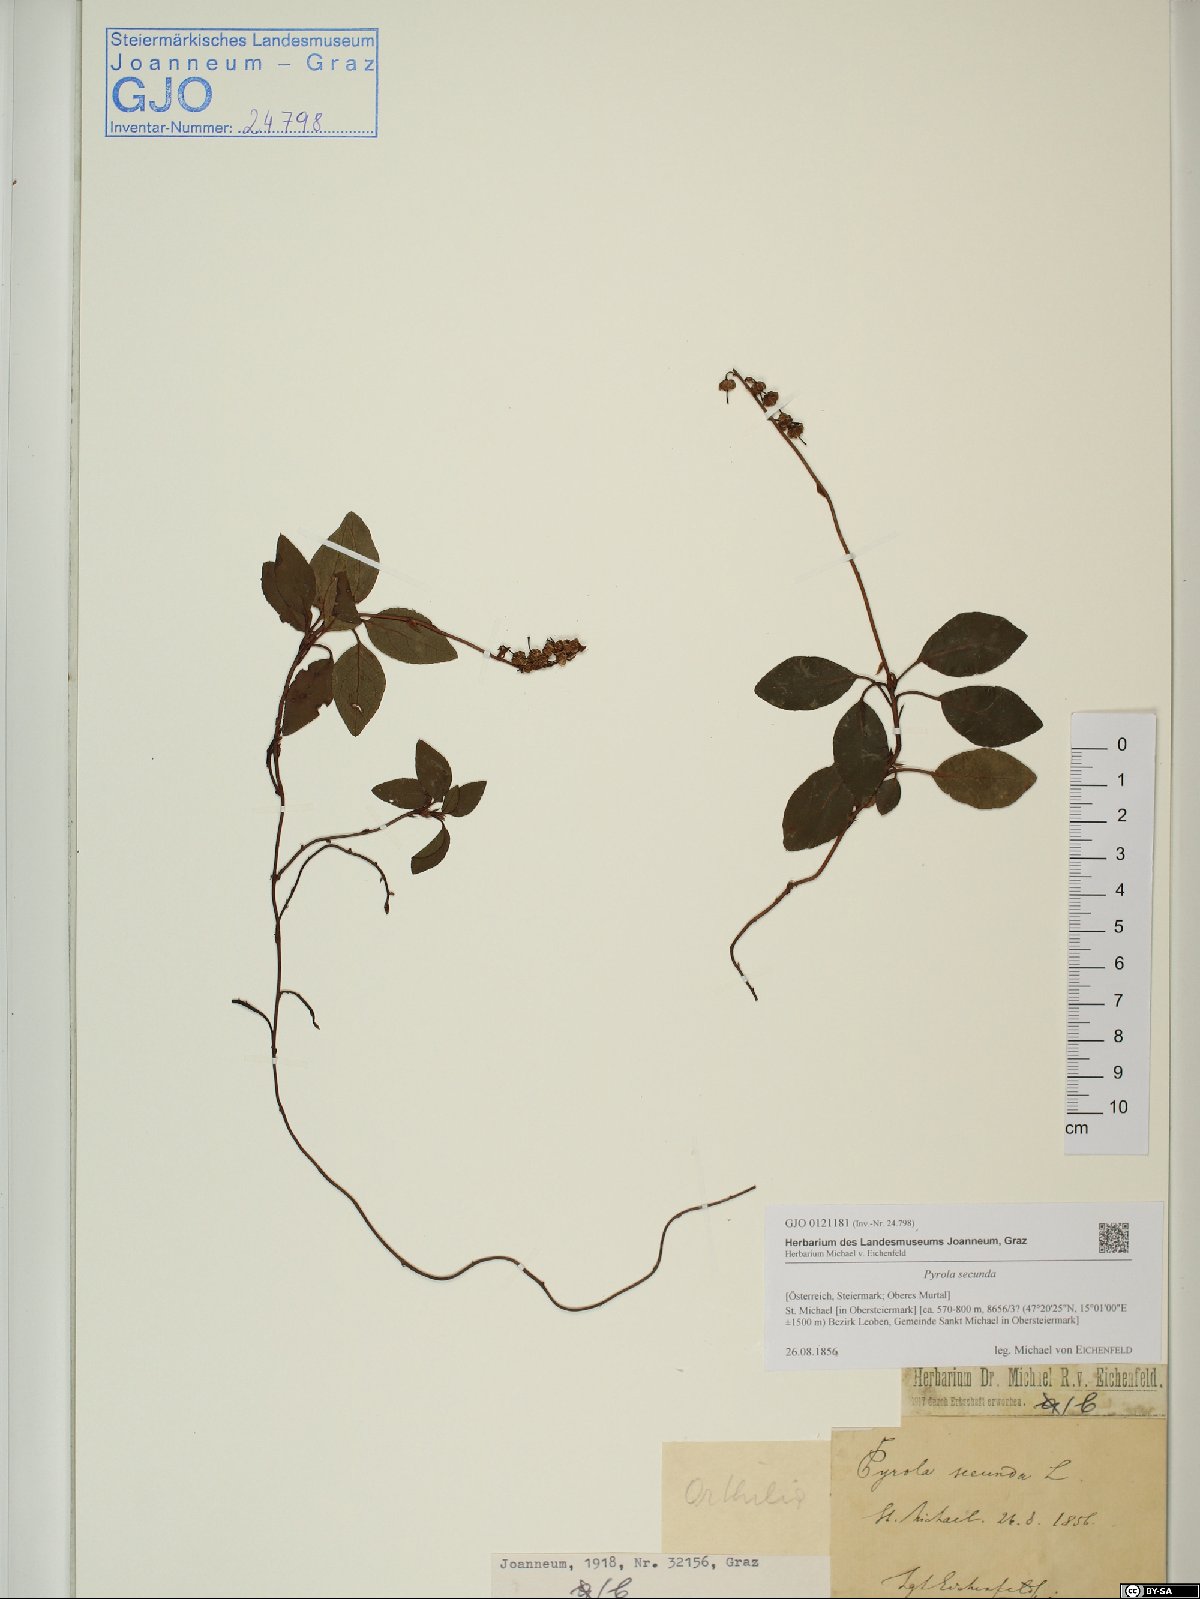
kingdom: Plantae
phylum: Tracheophyta
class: Magnoliopsida
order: Ericales
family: Ericaceae
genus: Orthilia
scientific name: Orthilia secunda
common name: One-sided orthilia
